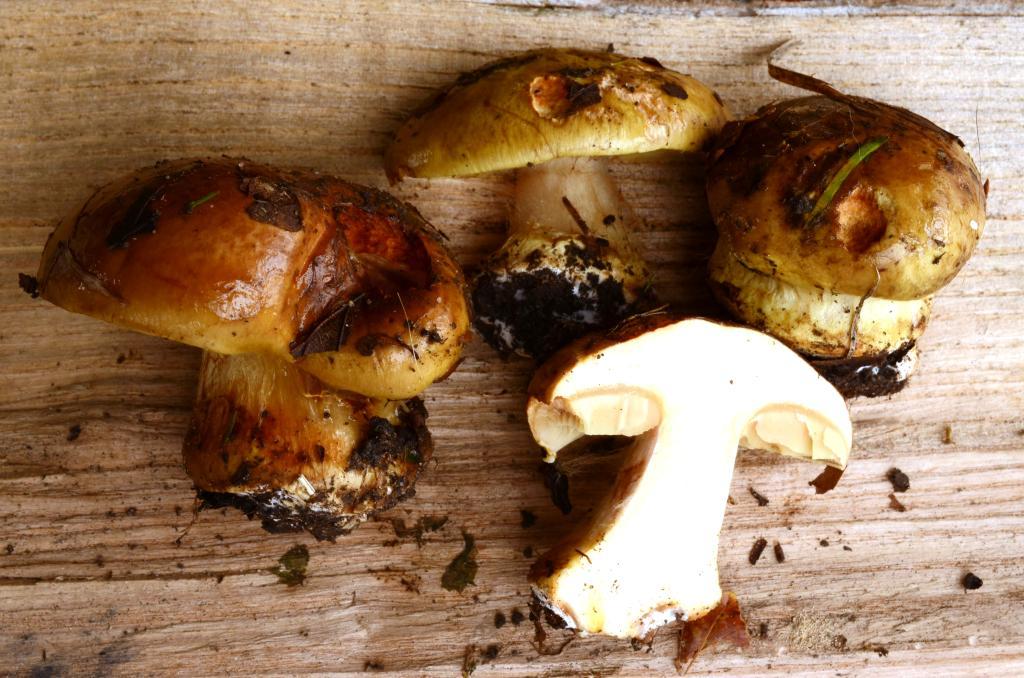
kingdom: Fungi
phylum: Basidiomycota
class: Agaricomycetes
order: Agaricales
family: Cortinariaceae
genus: Calonarius
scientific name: Calonarius flavovirens
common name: mel-slørhat
